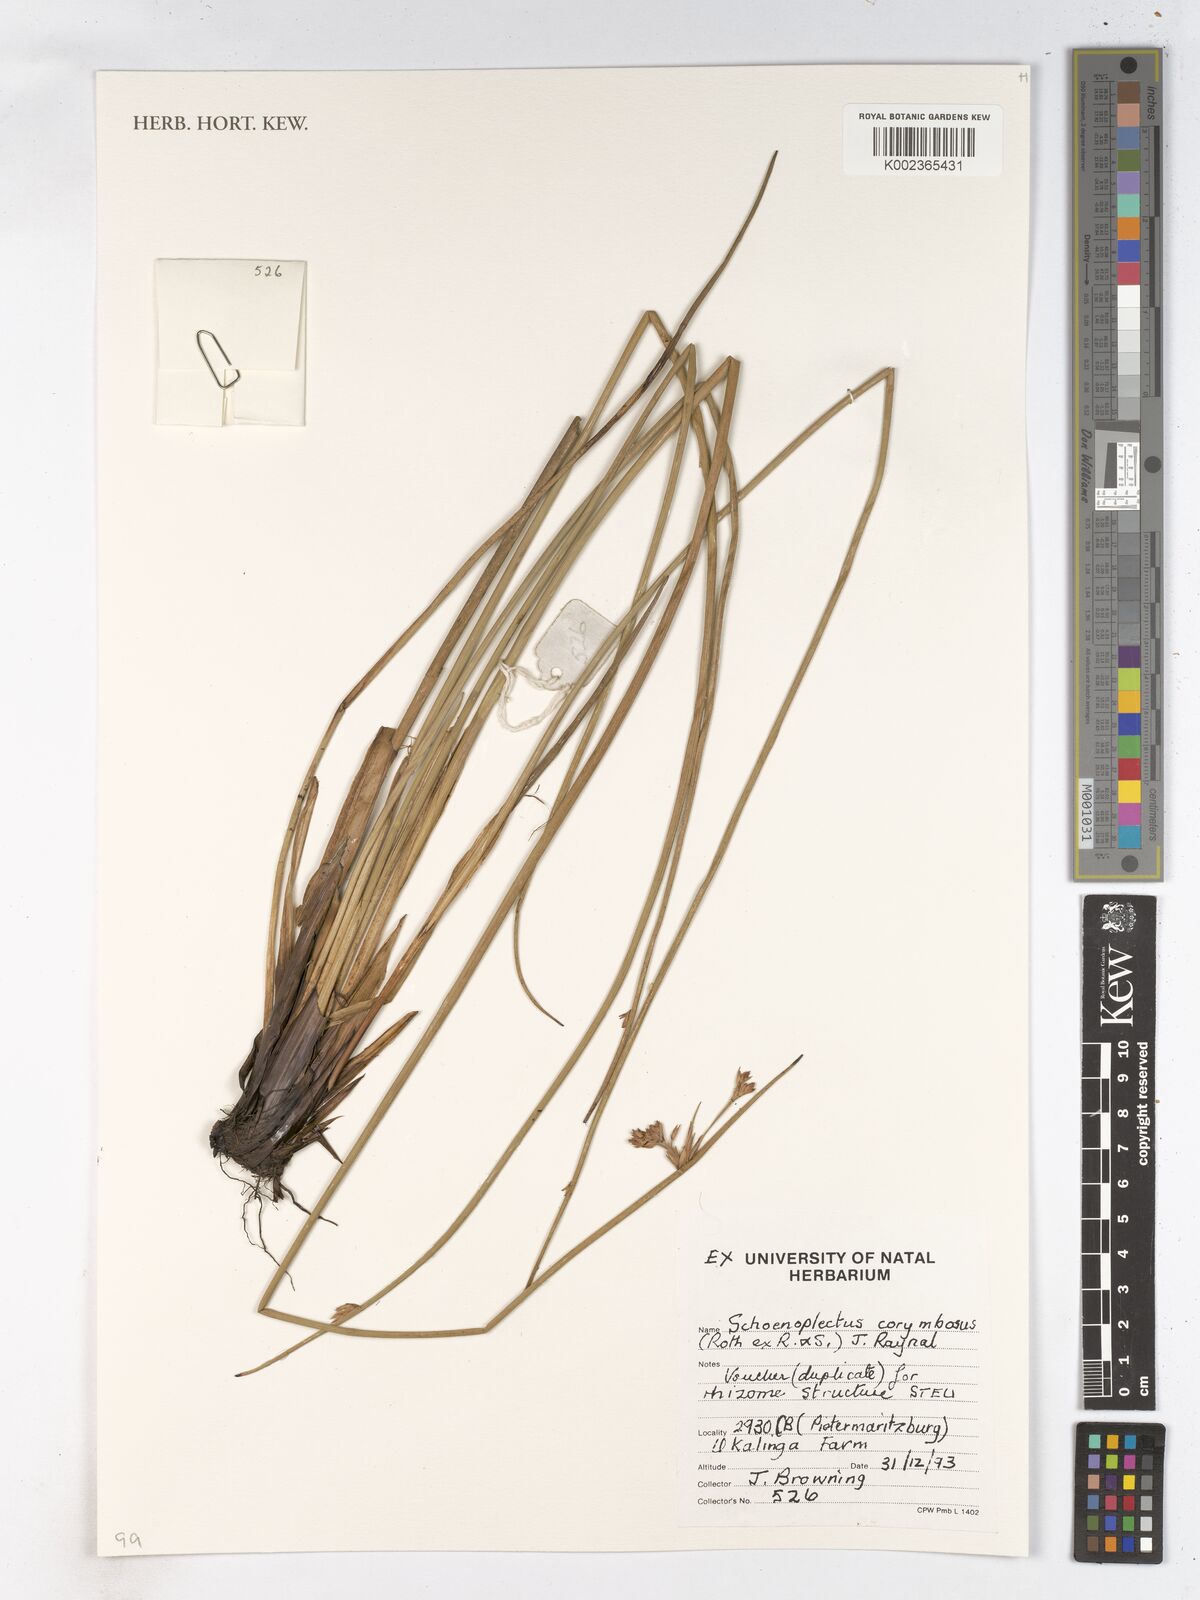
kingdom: Plantae
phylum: Tracheophyta
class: Liliopsida
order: Poales
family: Cyperaceae
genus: Schoenoplectiella
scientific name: Schoenoplectiella brachyceras
